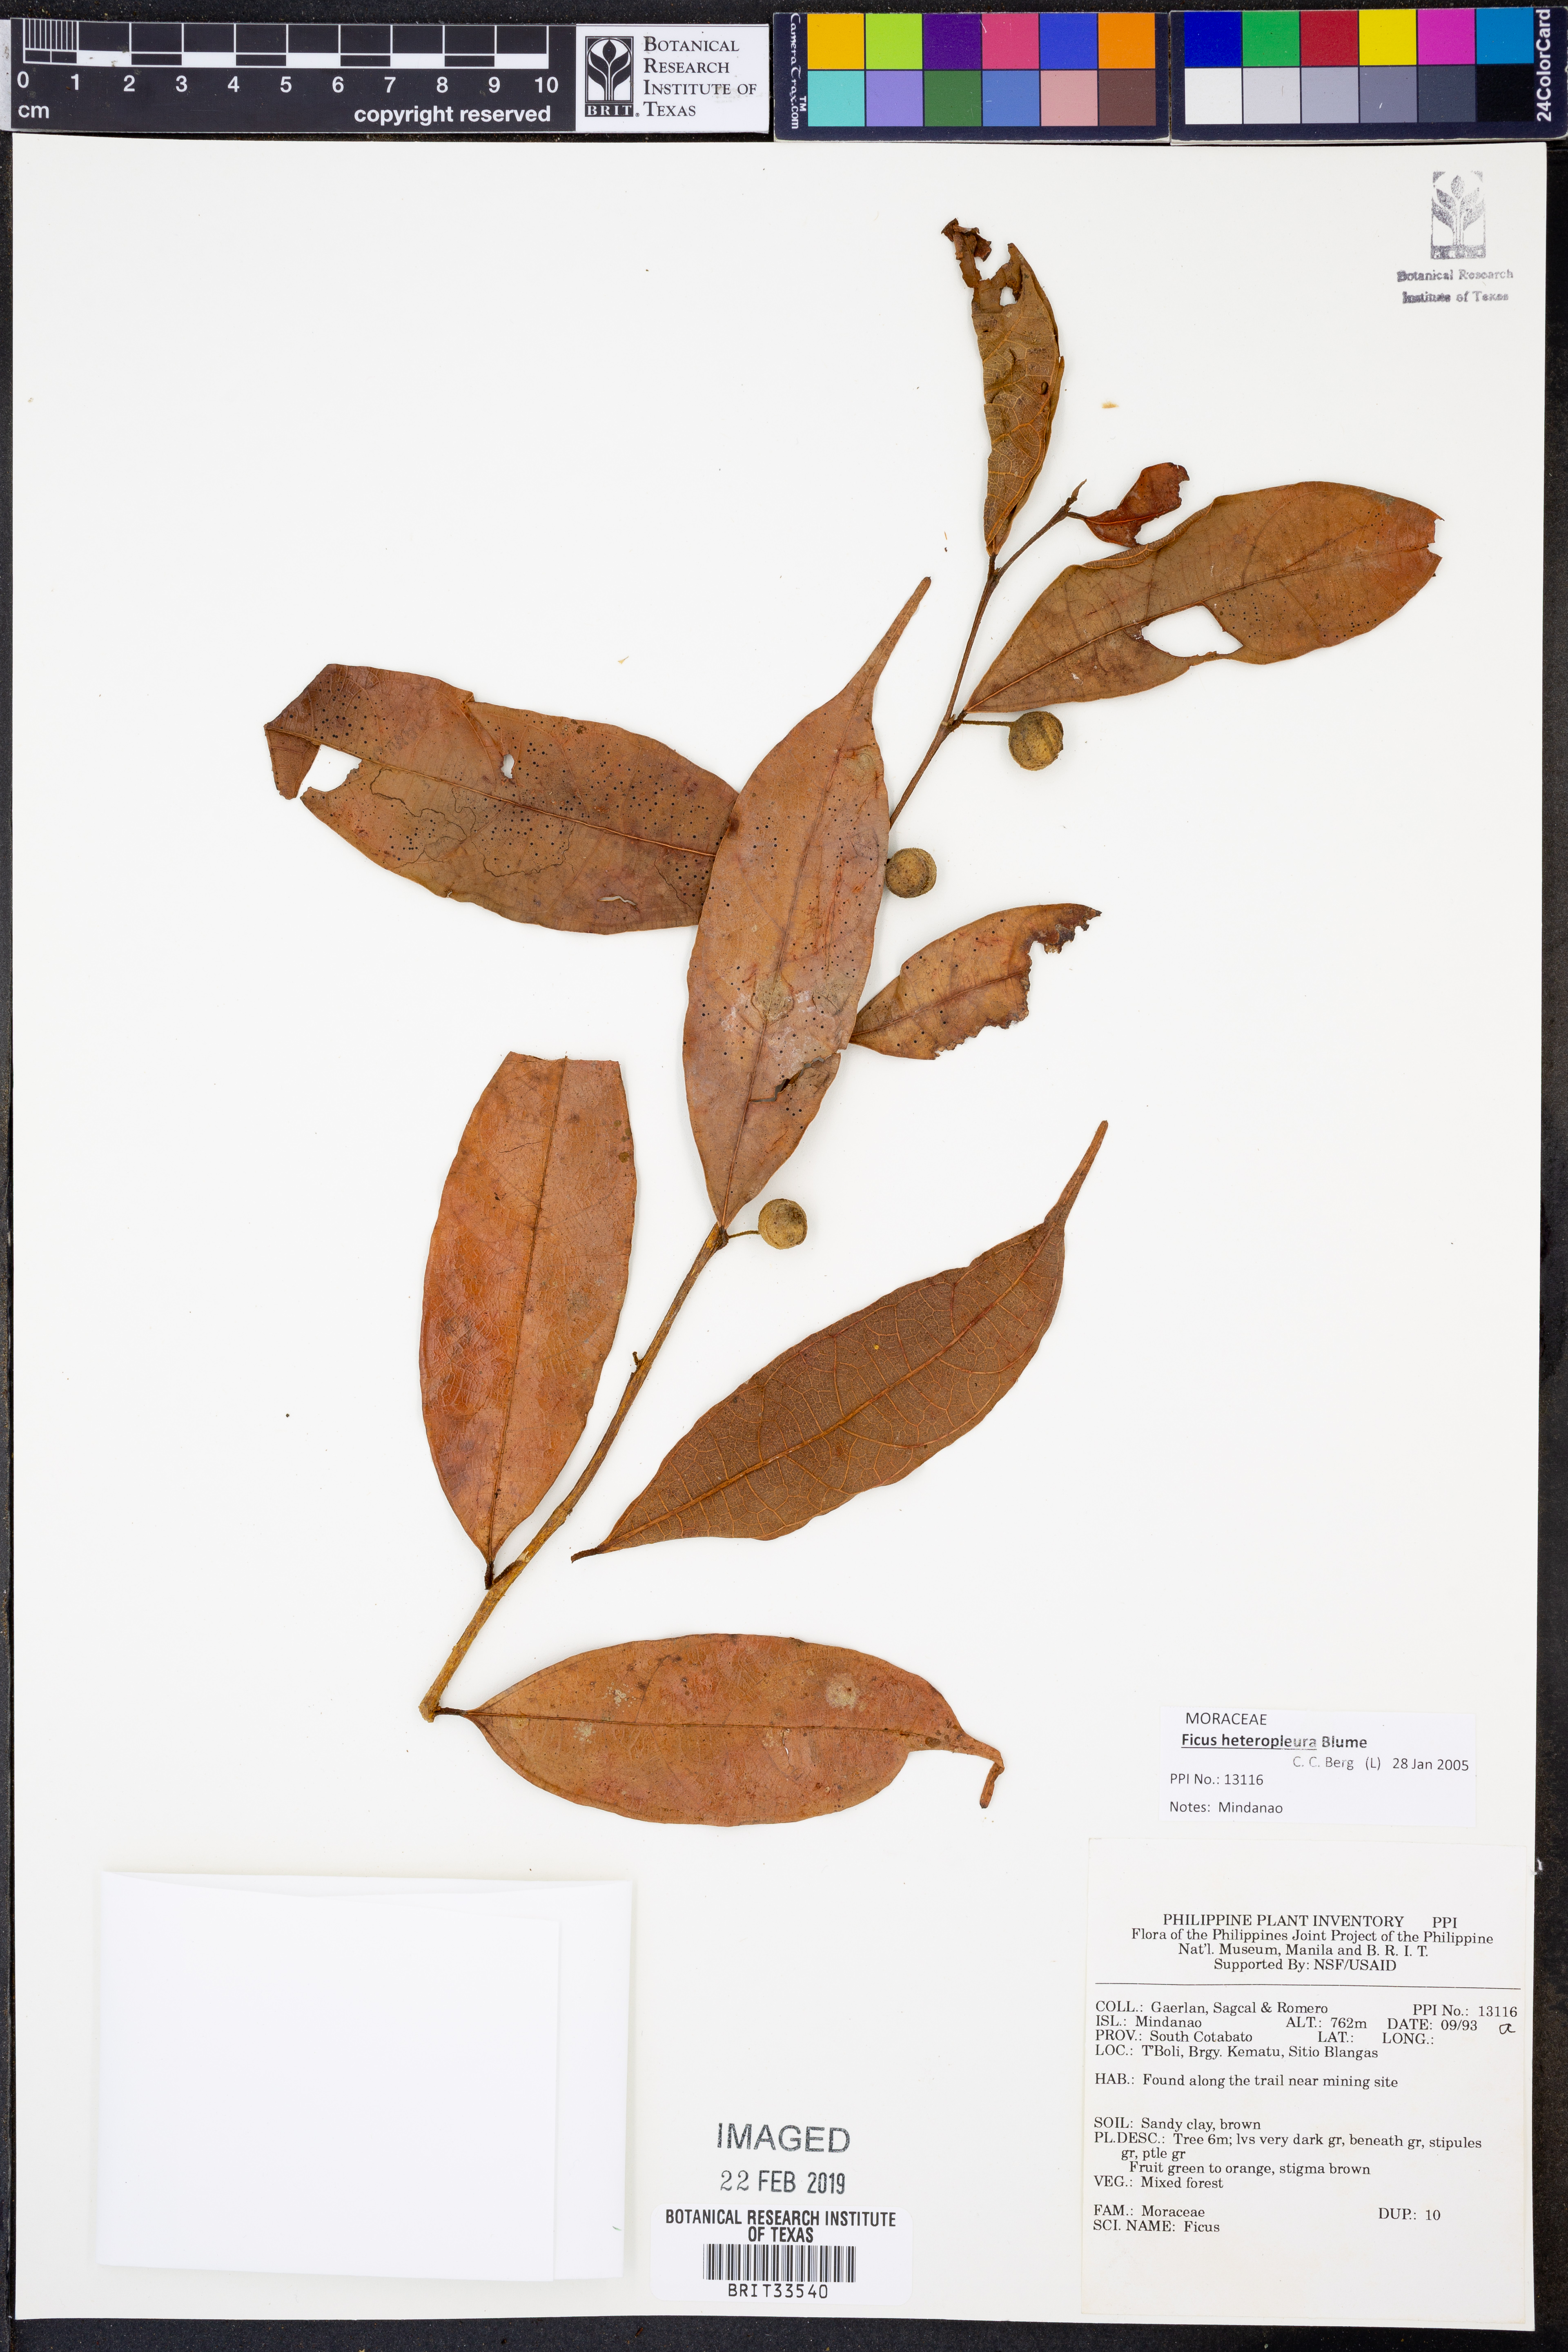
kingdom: Plantae
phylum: Tracheophyta
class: Magnoliopsida
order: Rosales
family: Moraceae
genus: Ficus
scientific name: Ficus heteropleura
